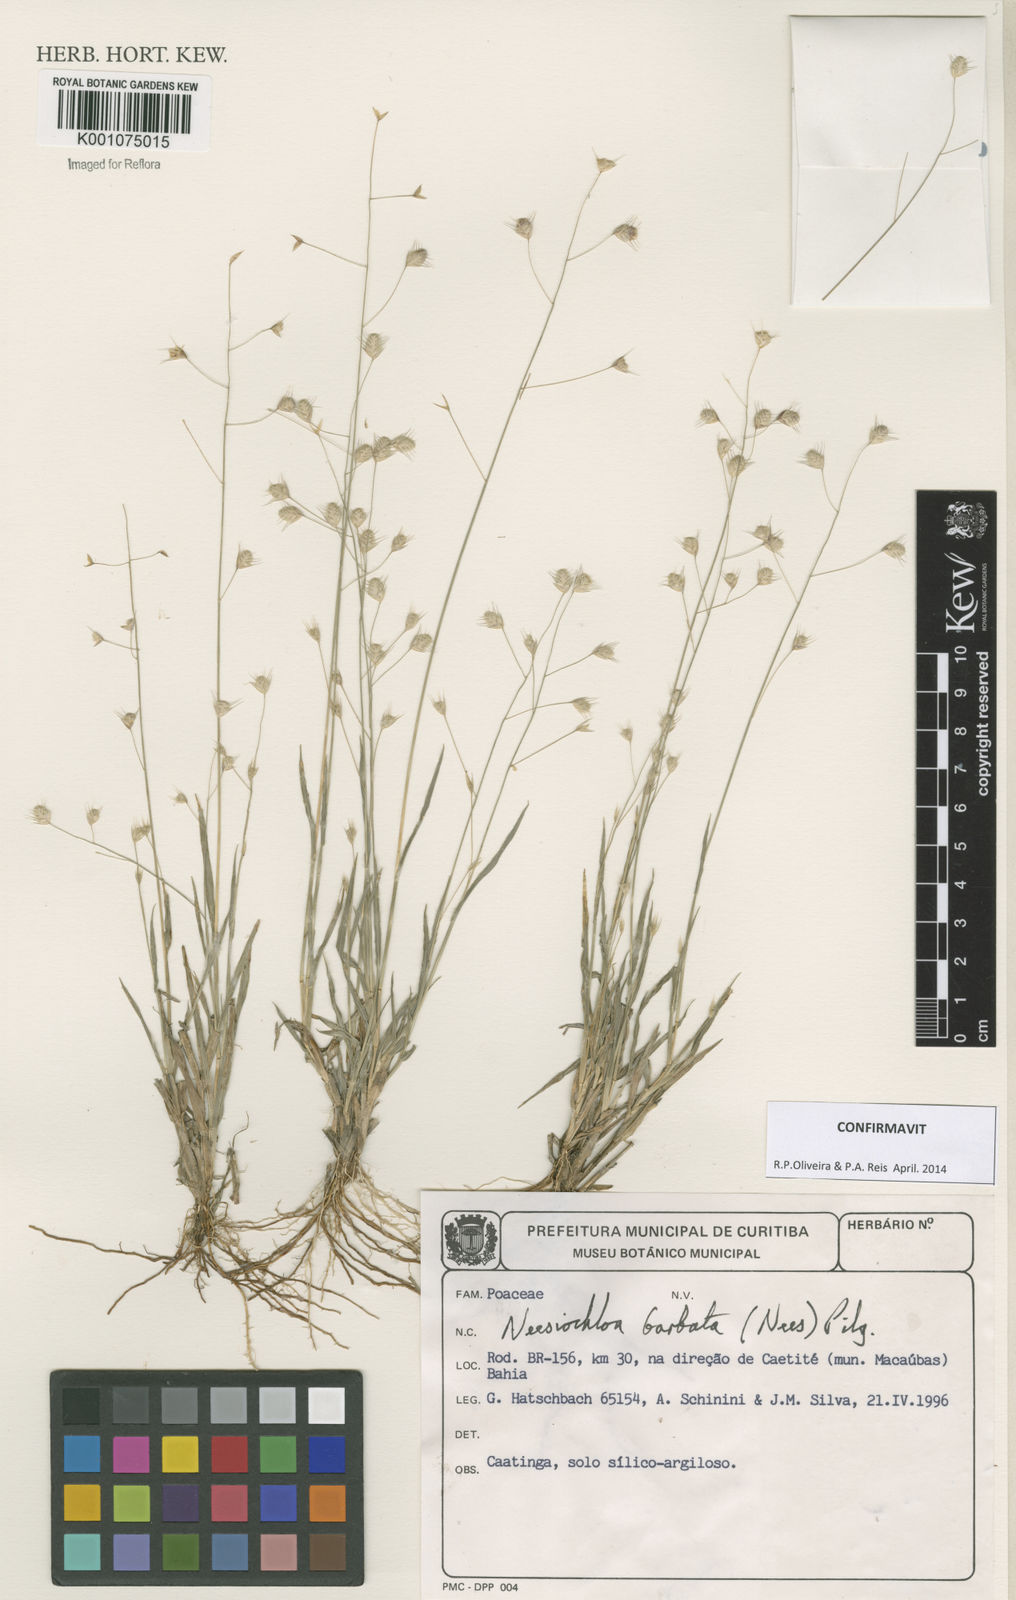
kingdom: Plantae
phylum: Tracheophyta
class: Liliopsida
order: Poales
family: Poaceae
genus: Neesiochloa
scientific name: Neesiochloa barbata
